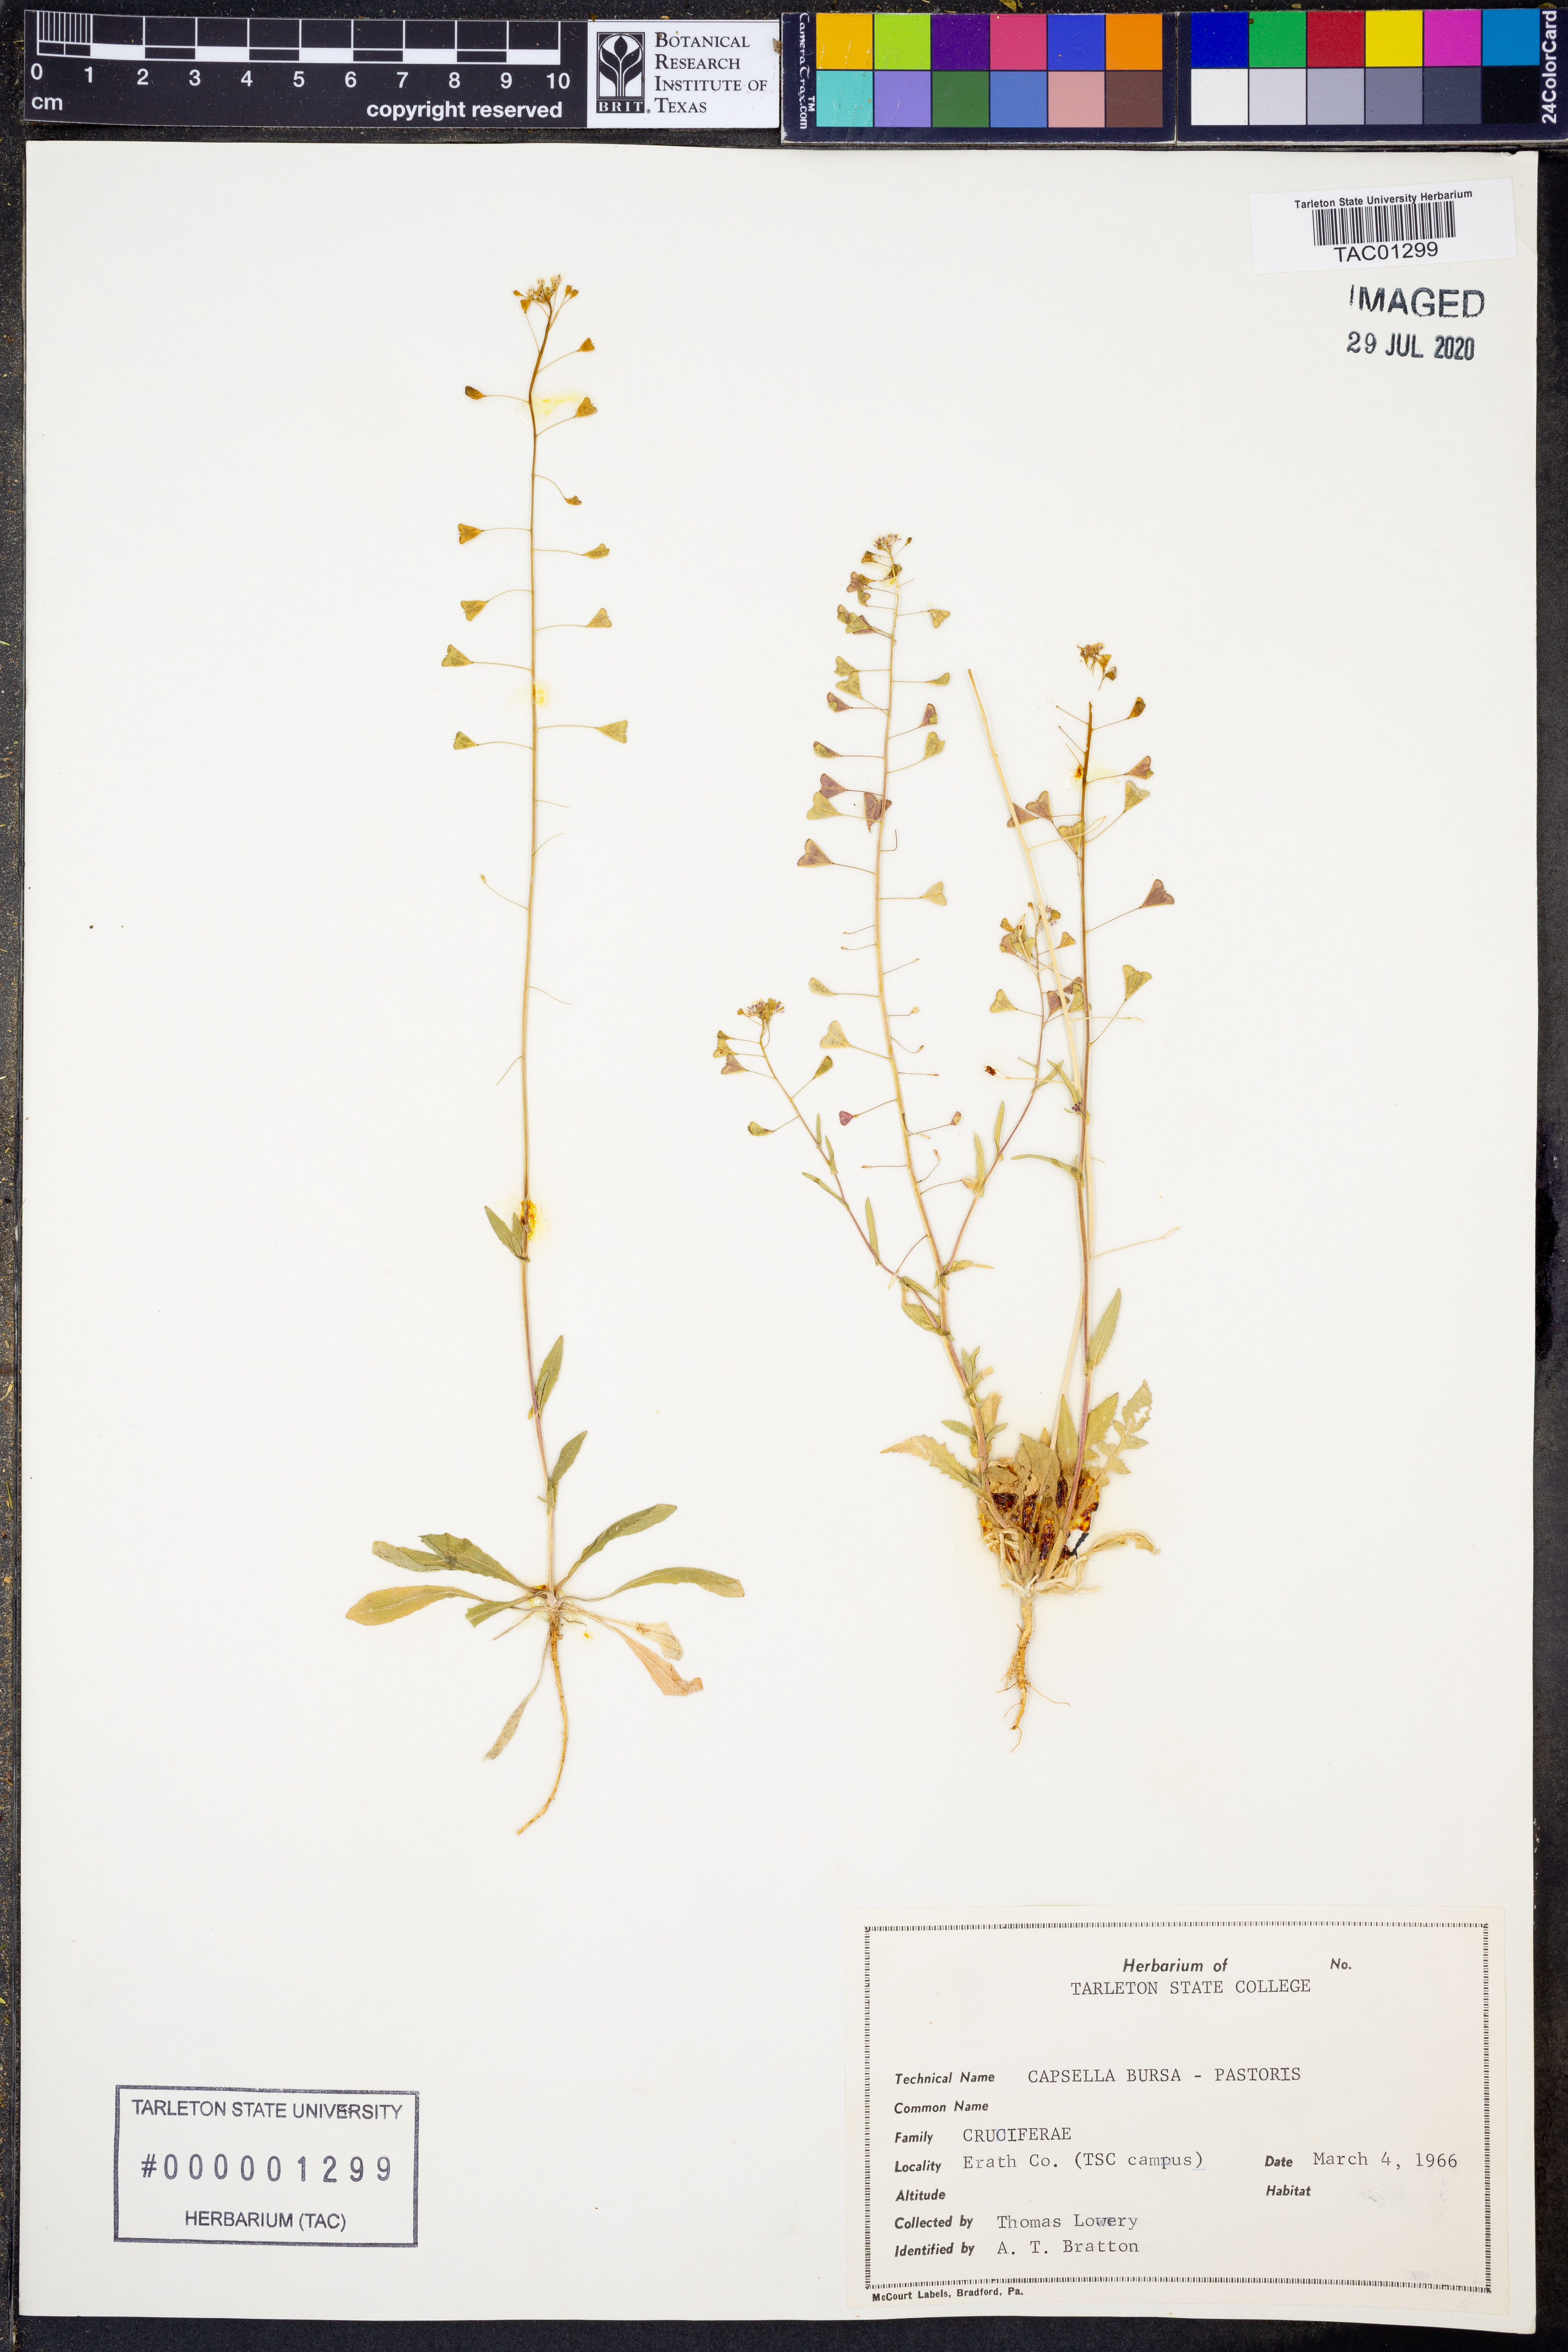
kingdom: Plantae
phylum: Tracheophyta
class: Magnoliopsida
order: Brassicales
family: Brassicaceae
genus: Capsella
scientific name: Capsella bursa-pastoris
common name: Shepherd's purse
